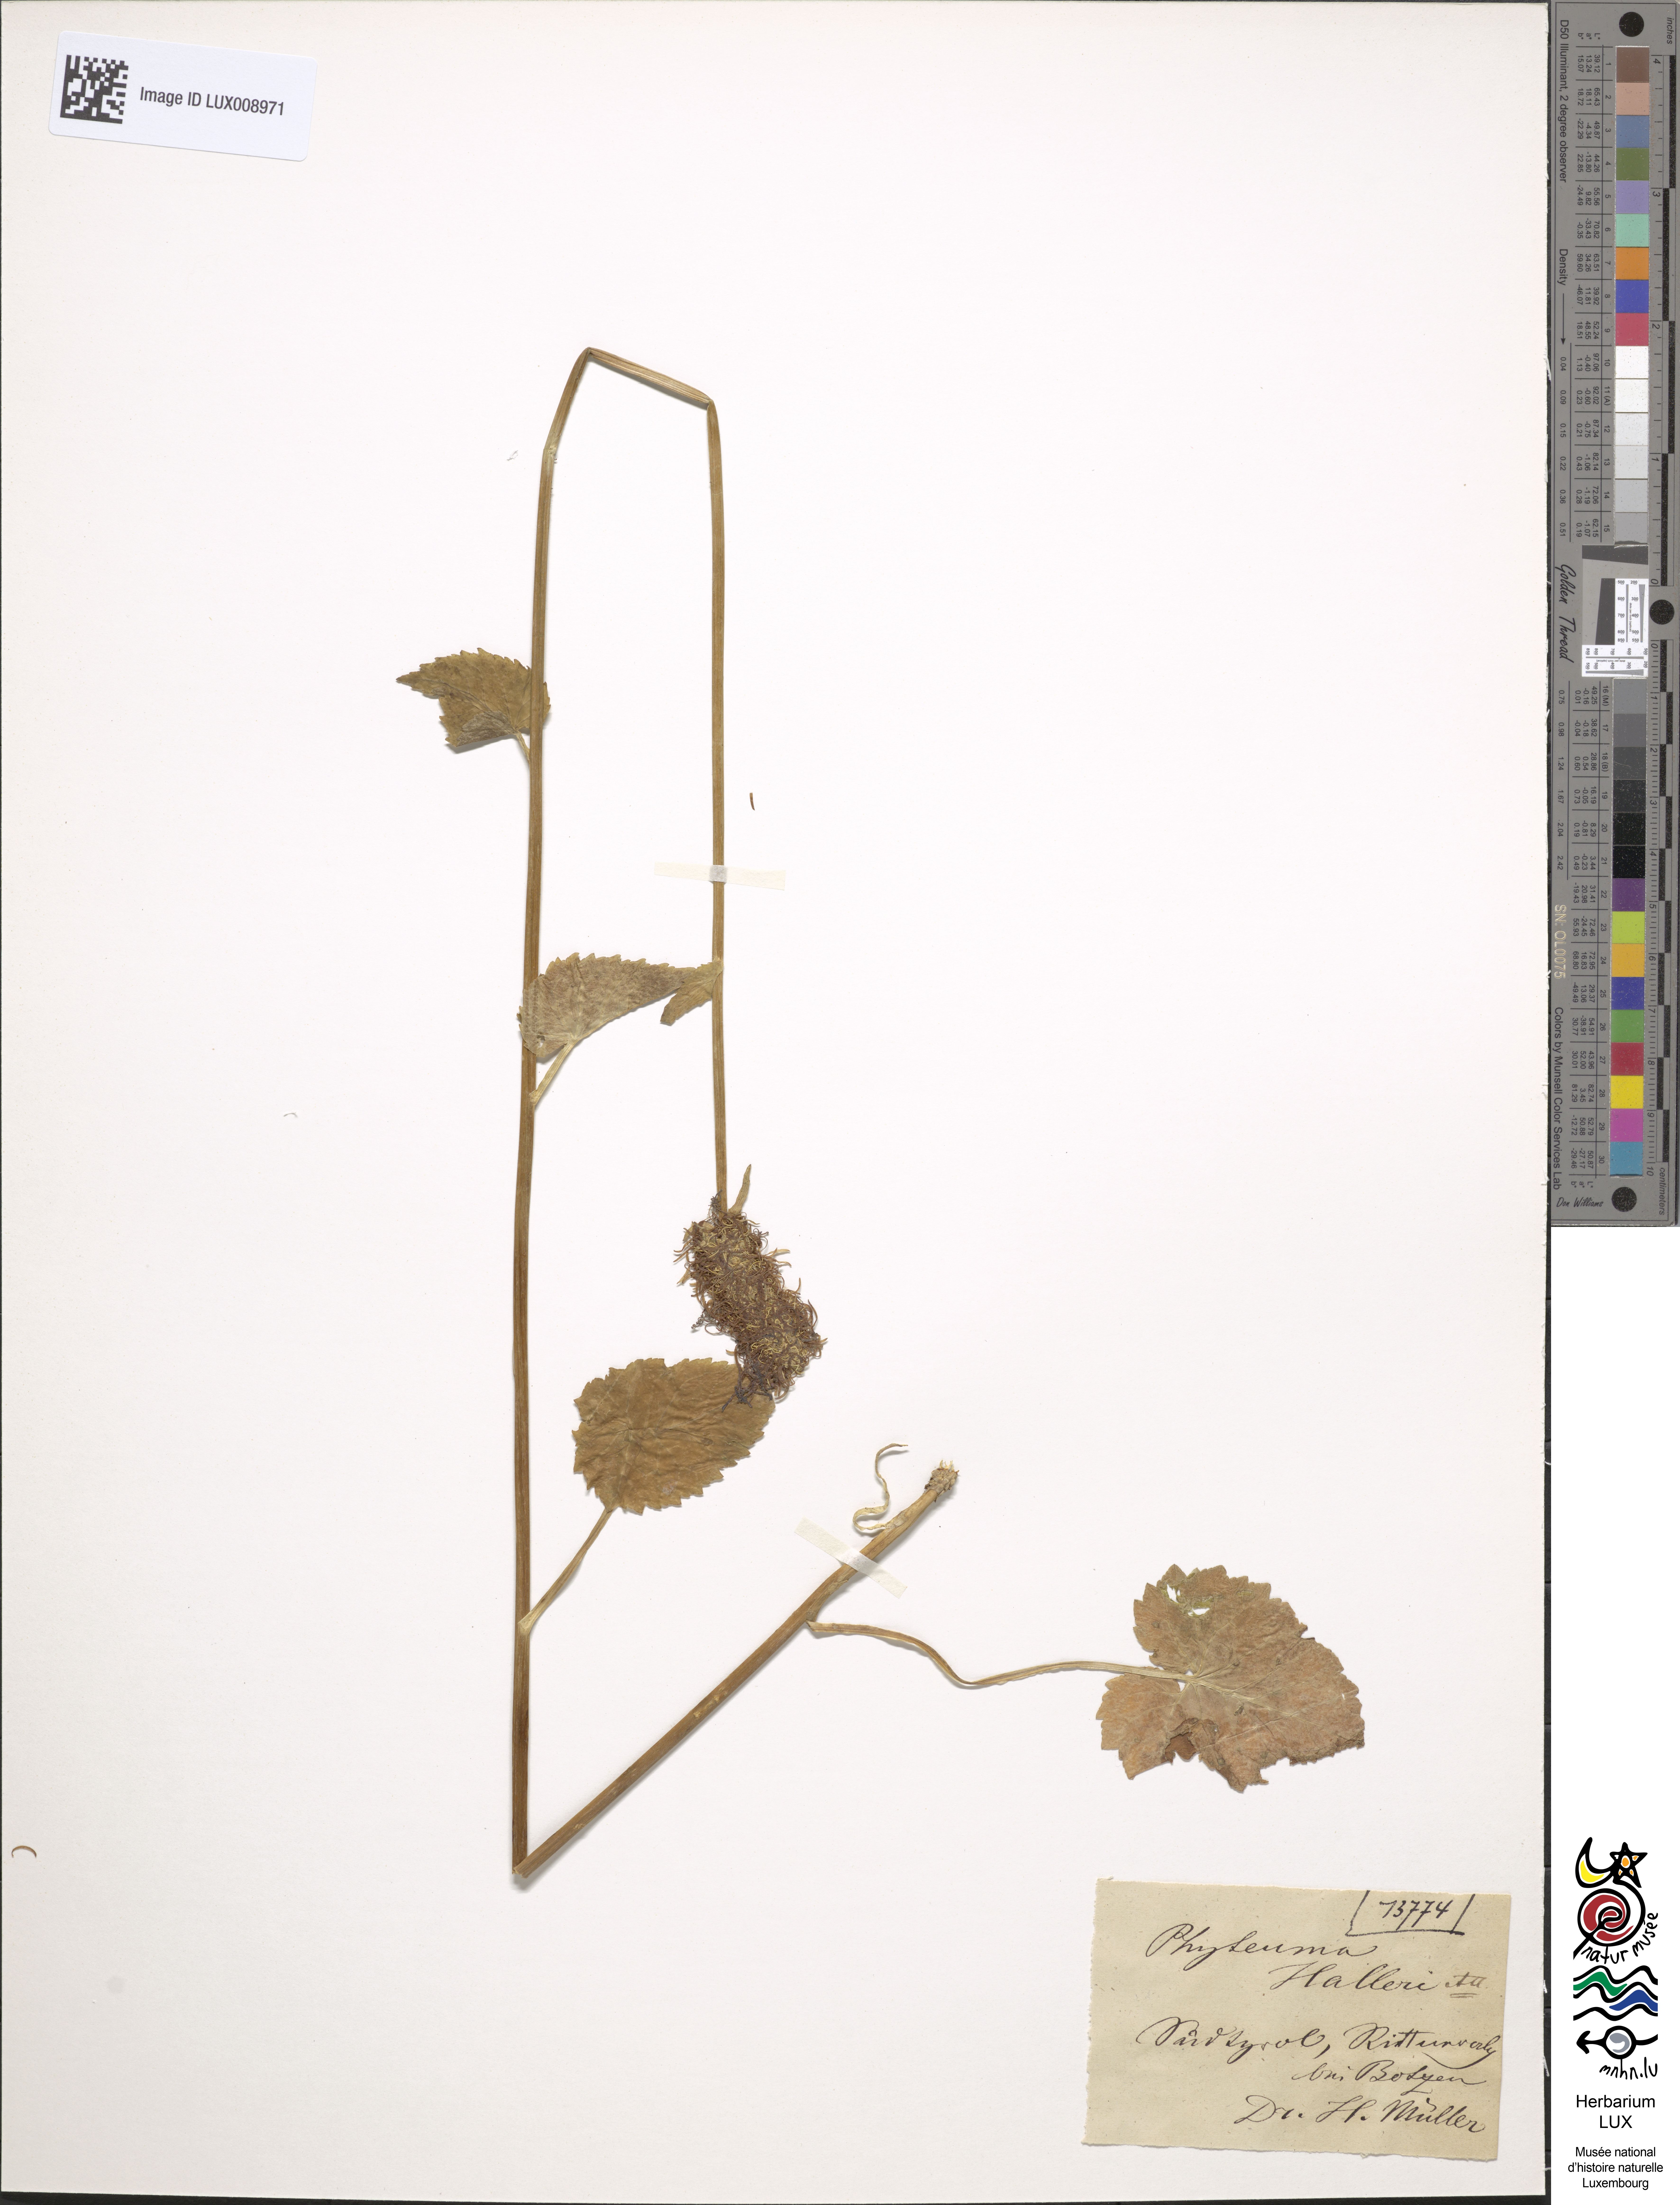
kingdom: Plantae
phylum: Tracheophyta
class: Magnoliopsida
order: Asterales
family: Campanulaceae
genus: Phyteuma
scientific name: Phyteuma ovatum
